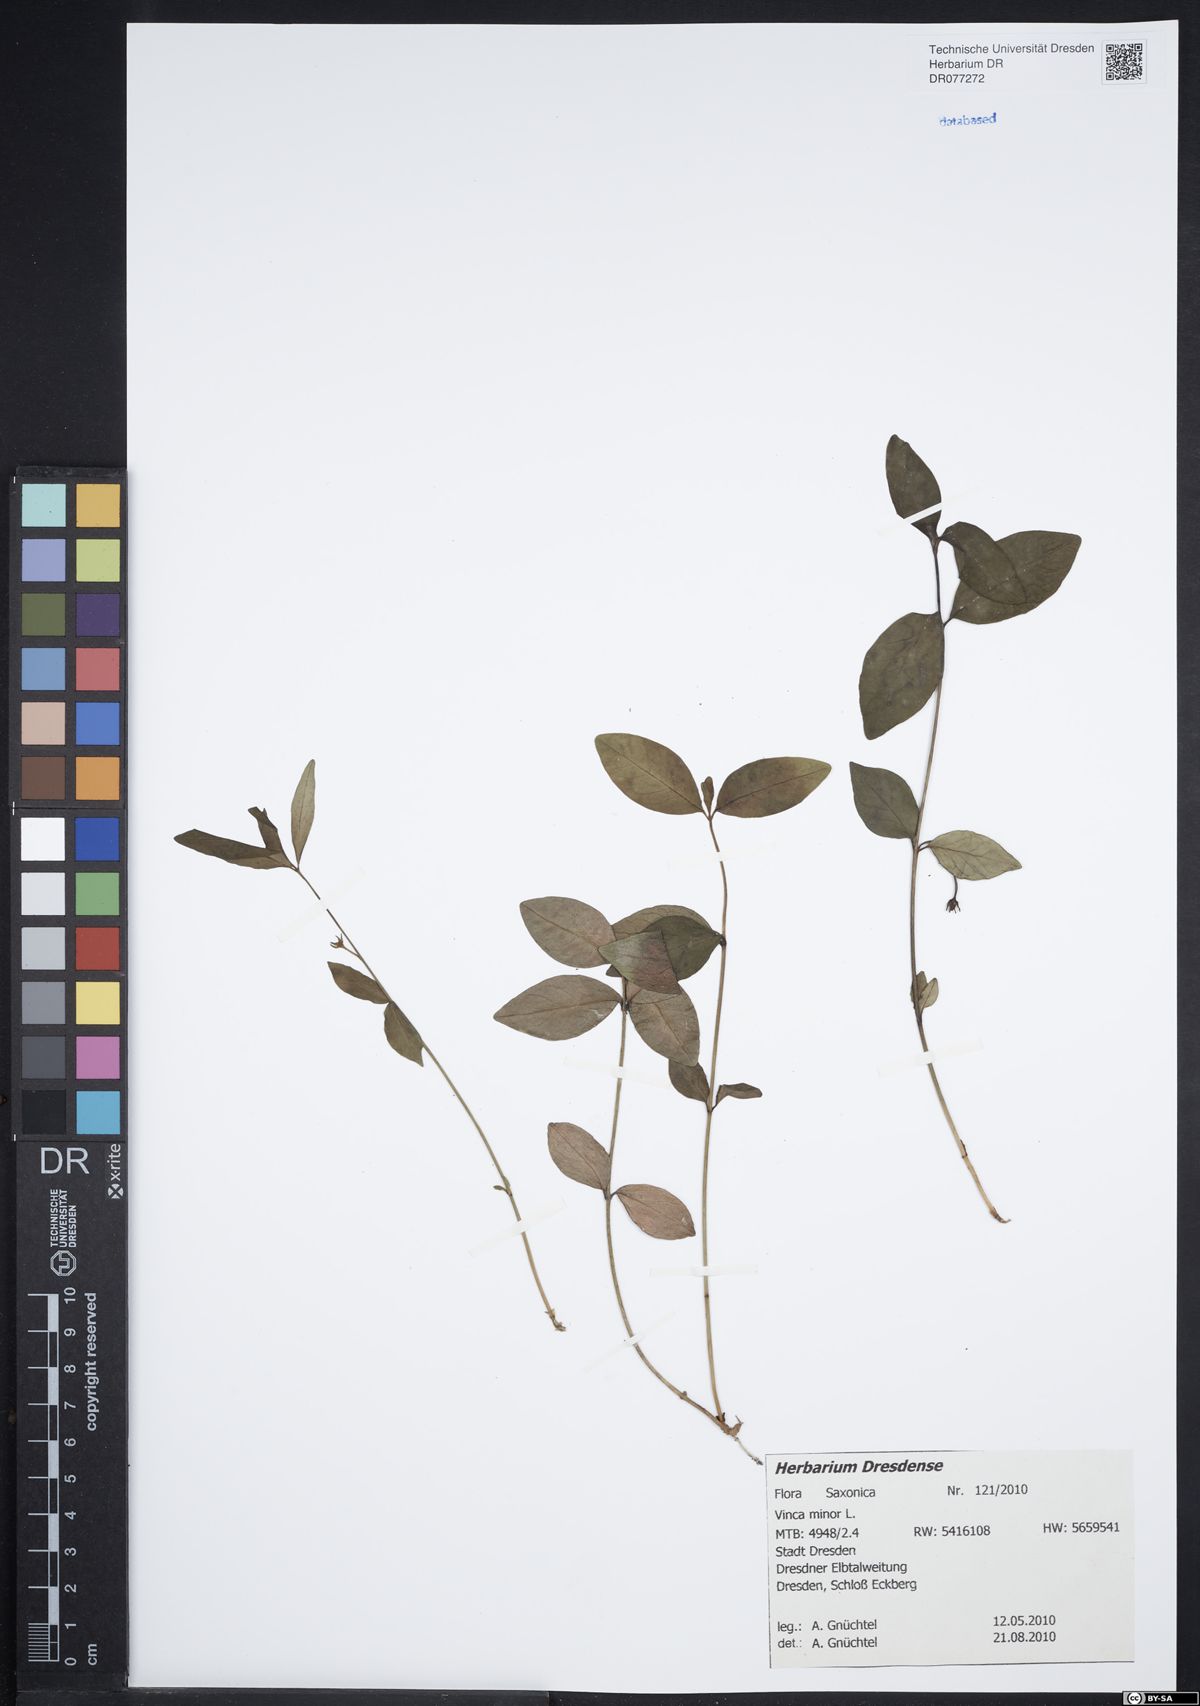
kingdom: Plantae
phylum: Tracheophyta
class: Magnoliopsida
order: Gentianales
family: Apocynaceae
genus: Vinca
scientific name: Vinca minor
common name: Lesser periwinkle
